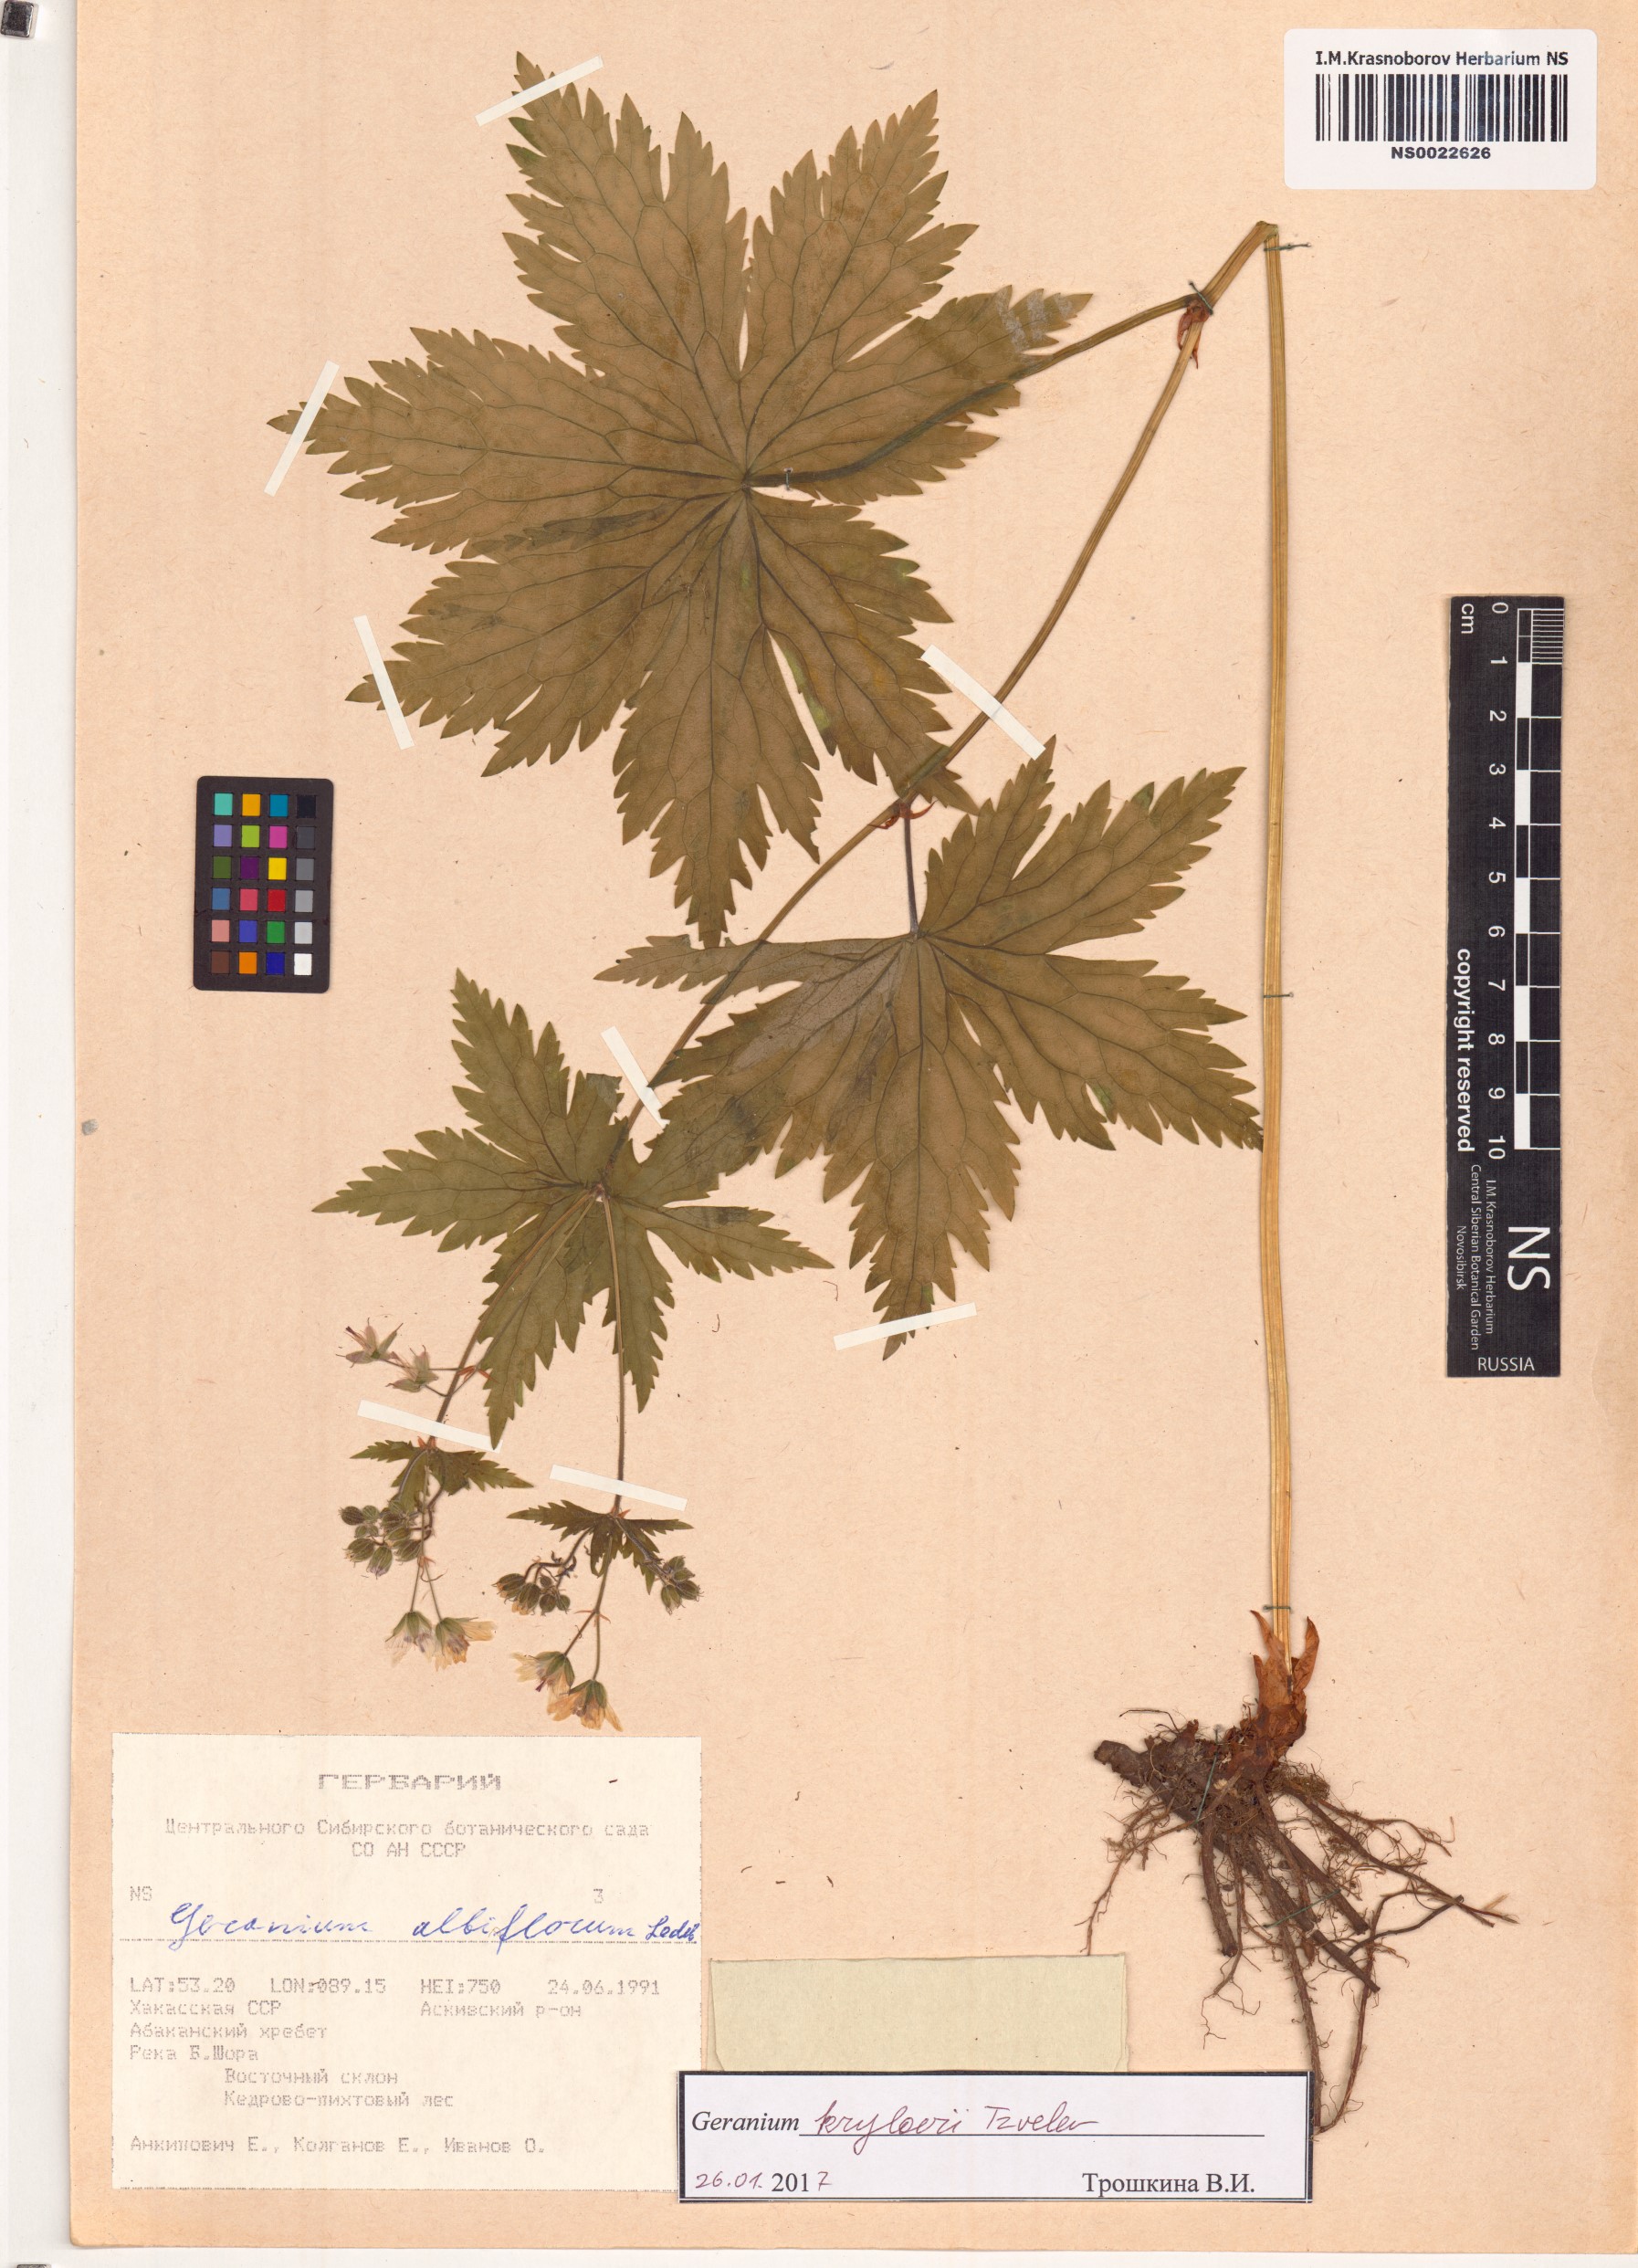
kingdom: Plantae
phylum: Tracheophyta
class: Magnoliopsida
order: Geraniales
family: Geraniaceae
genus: Geranium
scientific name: Geranium sylvaticum
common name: Wood crane's-bill
